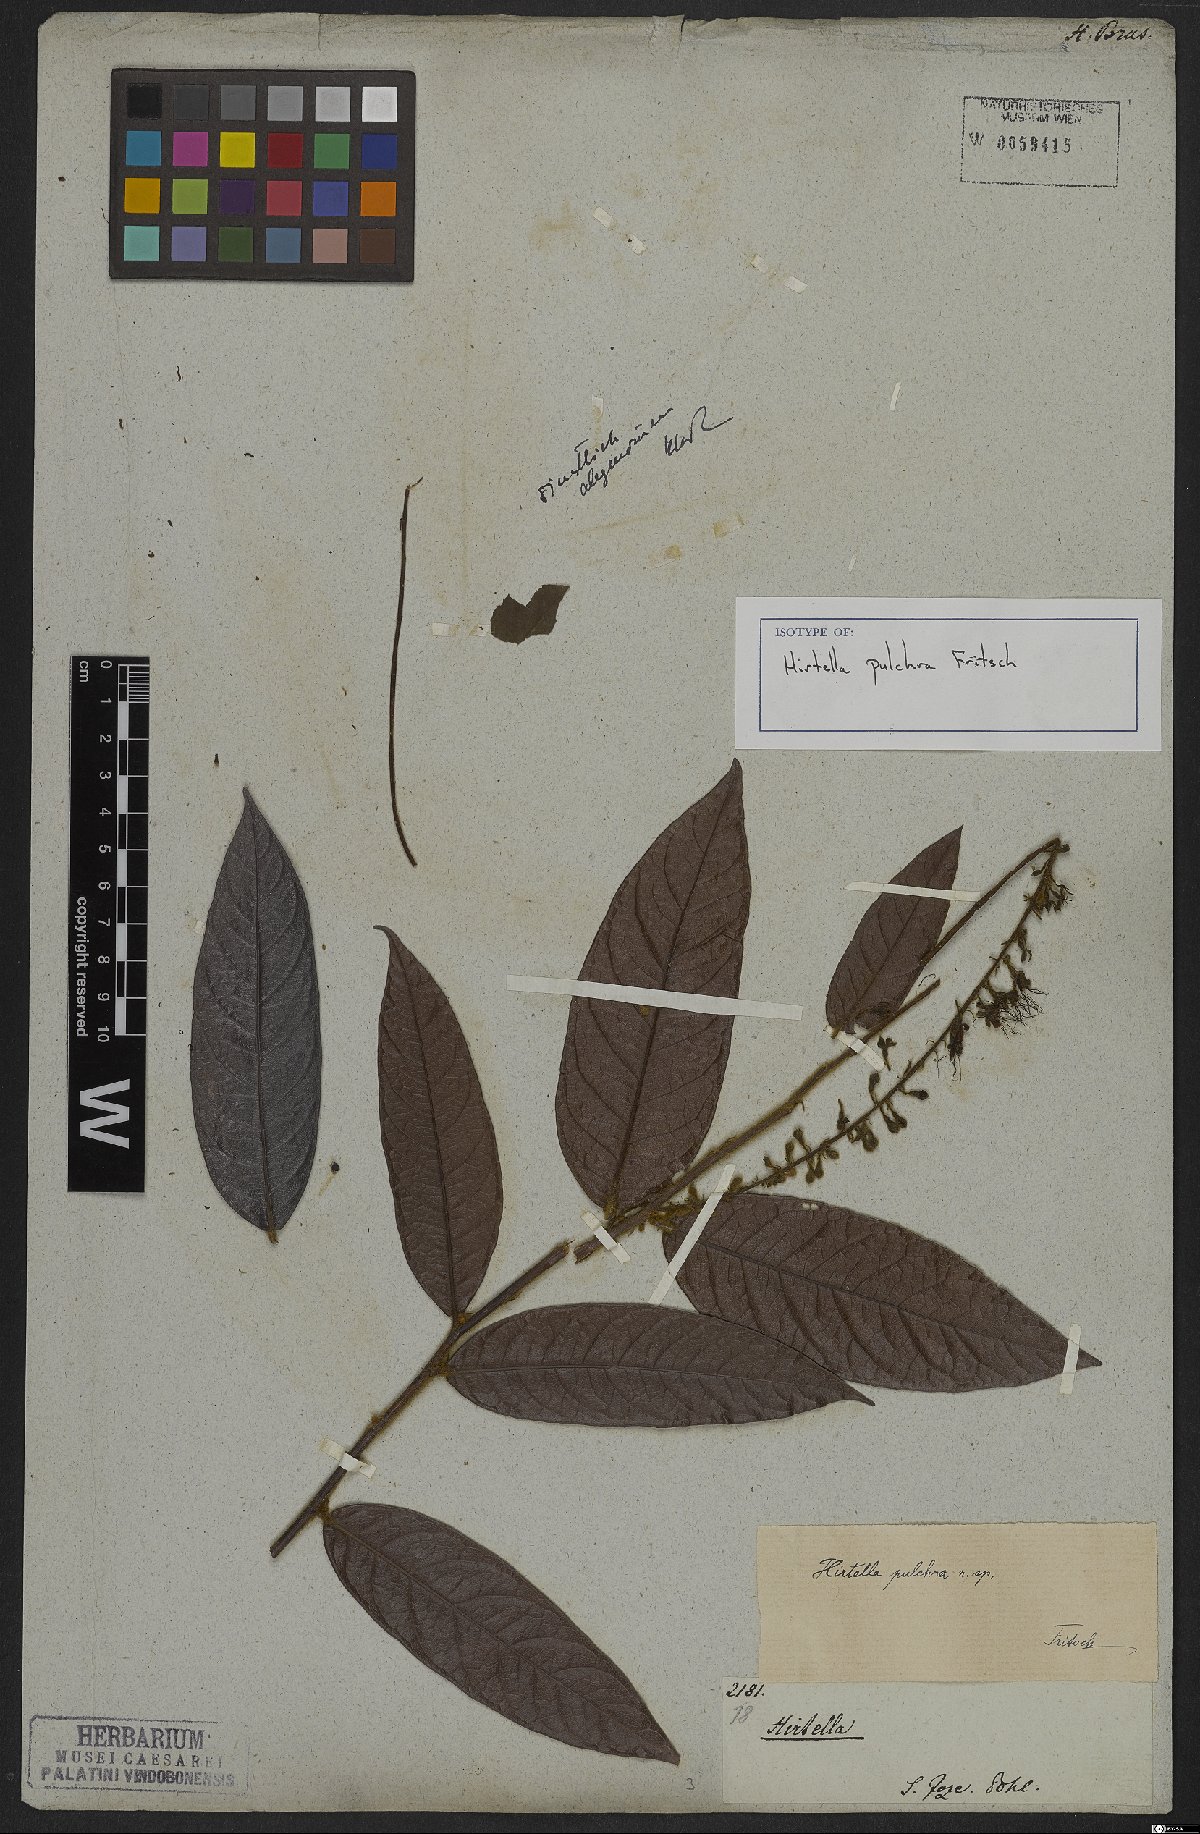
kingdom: Plantae
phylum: Tracheophyta
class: Magnoliopsida
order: Malpighiales
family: Chrysobalanaceae
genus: Hirtella
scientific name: Hirtella burchellii
